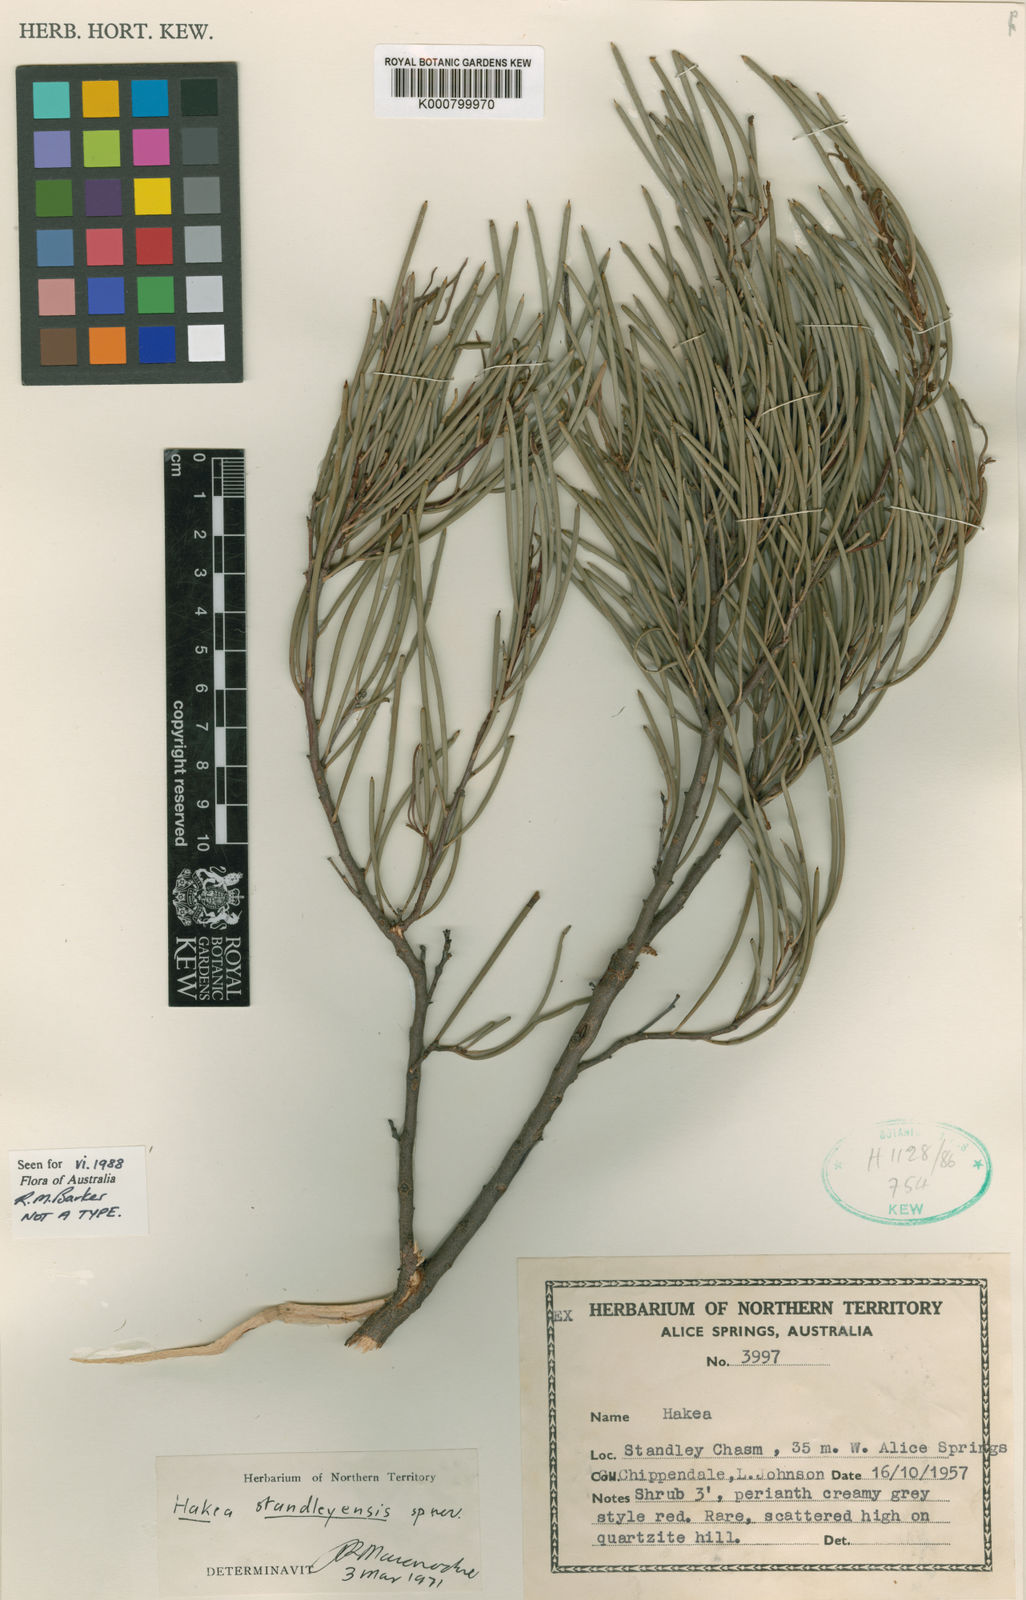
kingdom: Plantae
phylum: Tracheophyta
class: Magnoliopsida
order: Proteales
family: Proteaceae
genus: Hakea
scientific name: Hakea standleyensis
